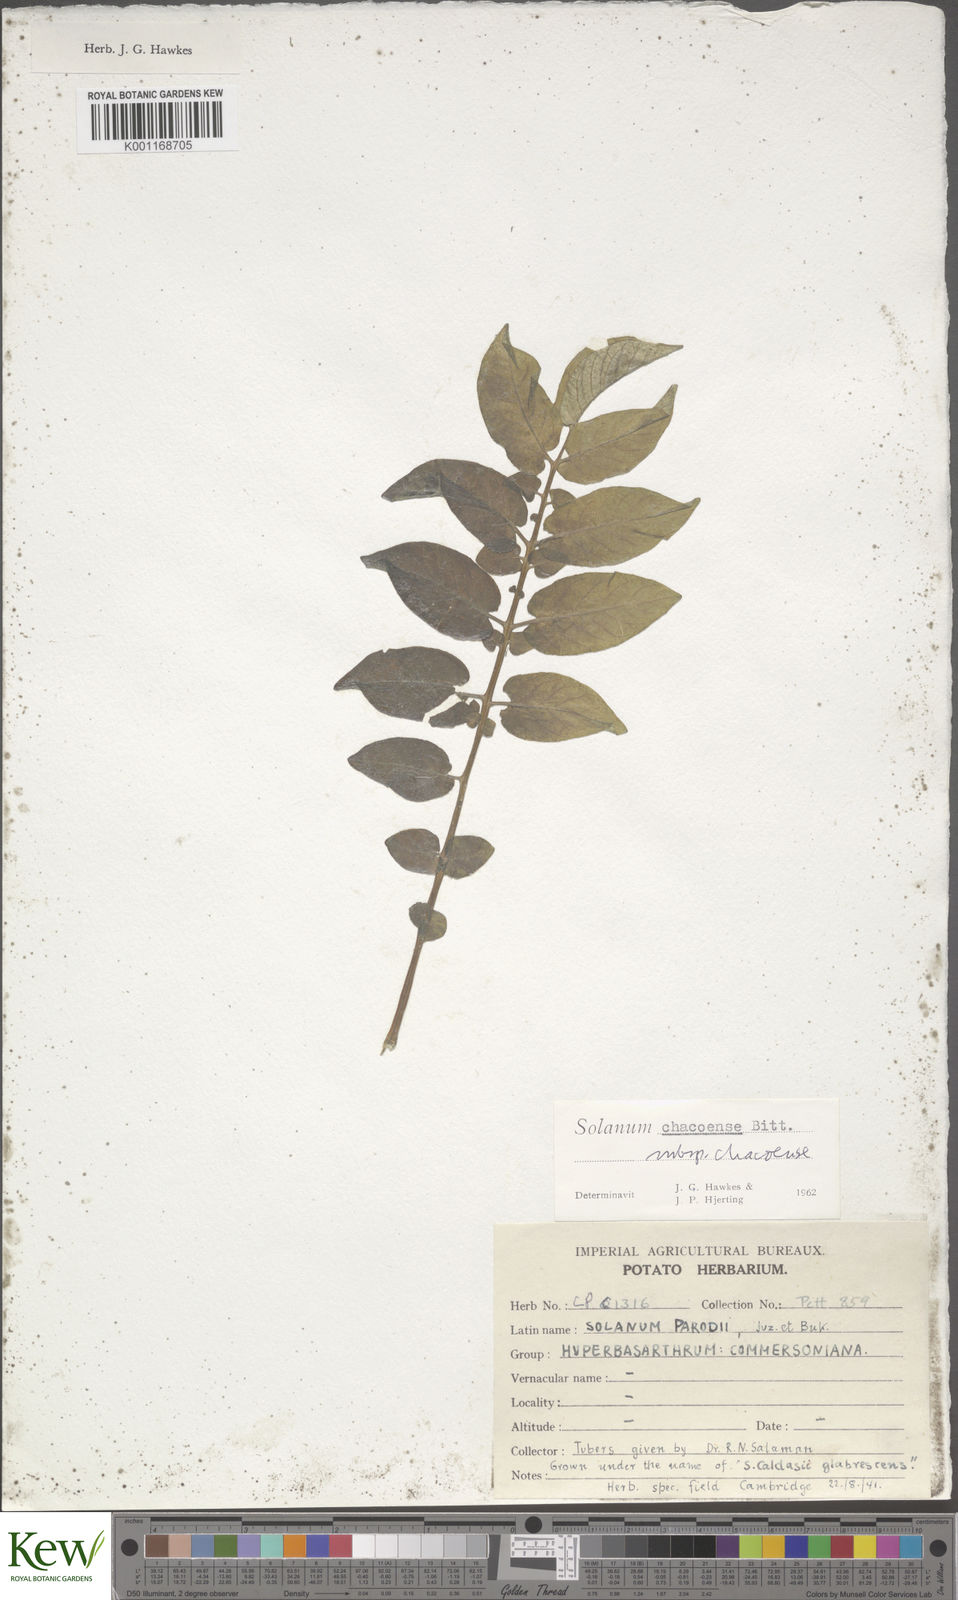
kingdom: Plantae
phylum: Tracheophyta
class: Magnoliopsida
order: Solanales
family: Solanaceae
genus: Solanum
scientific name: Solanum chacoense
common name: Chaco potato
